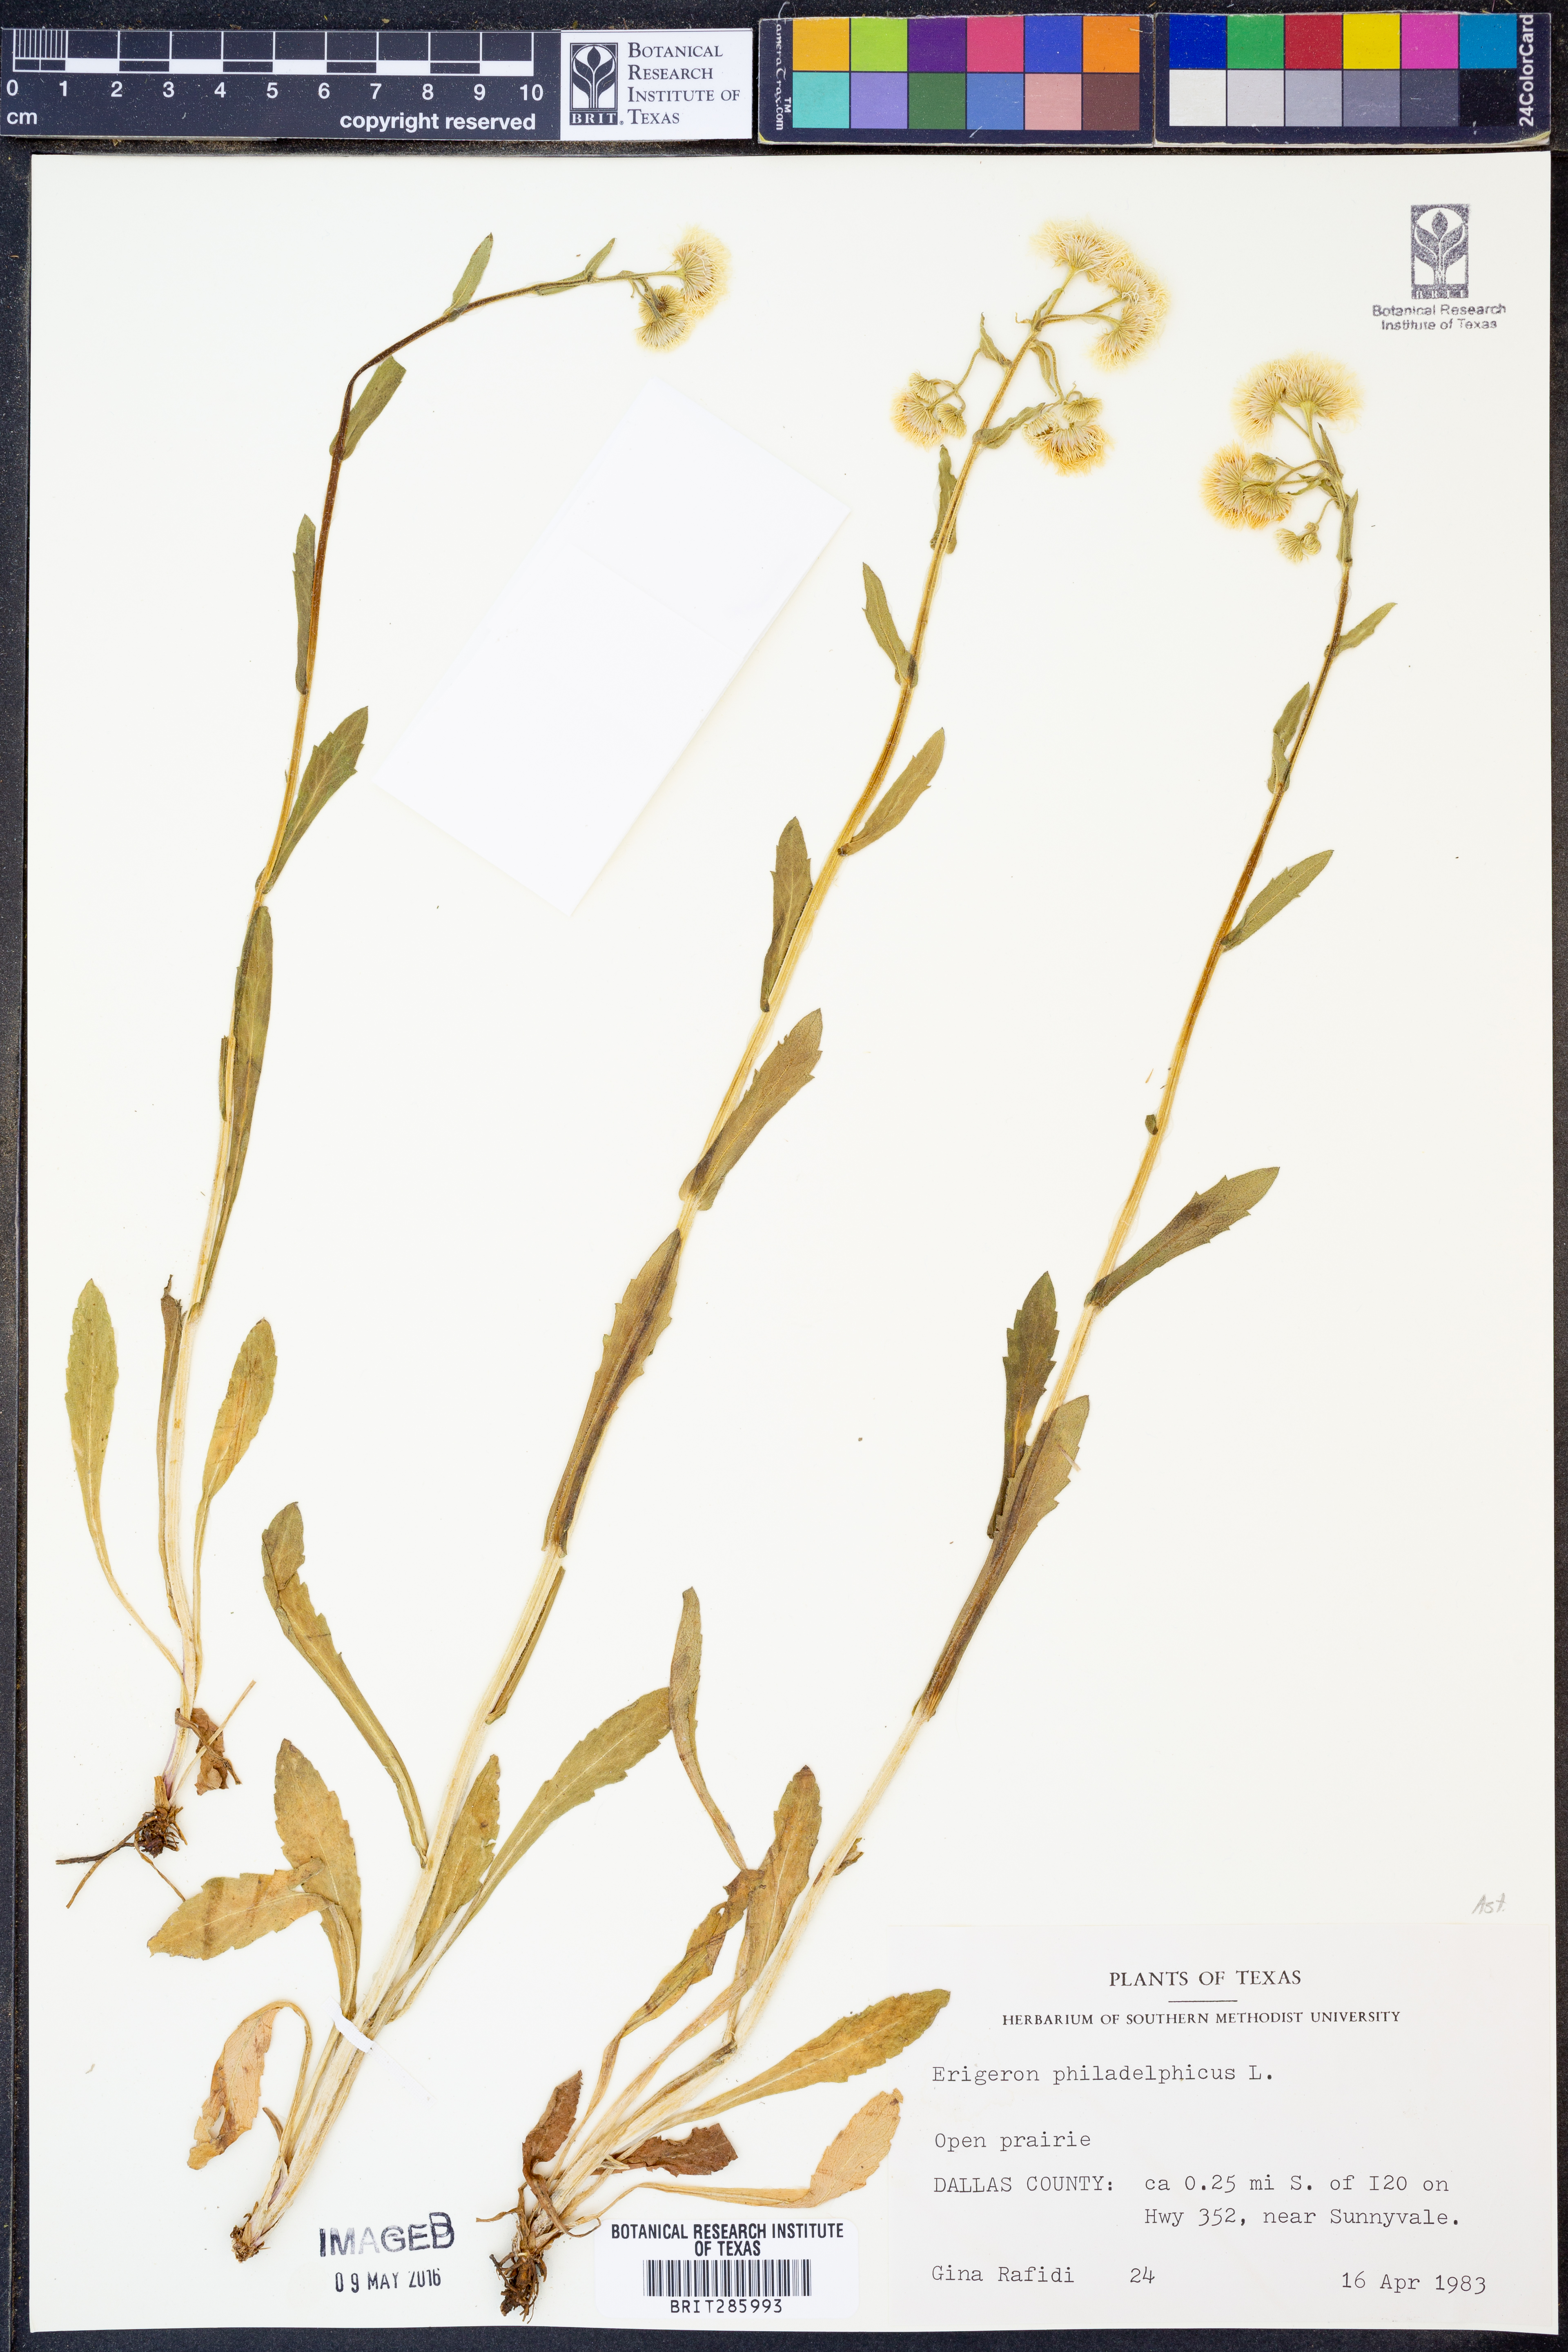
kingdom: Plantae
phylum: Tracheophyta
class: Magnoliopsida
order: Asterales
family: Asteraceae
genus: Erigeron
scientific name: Erigeron philadelphicus
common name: Robin's-plantain
